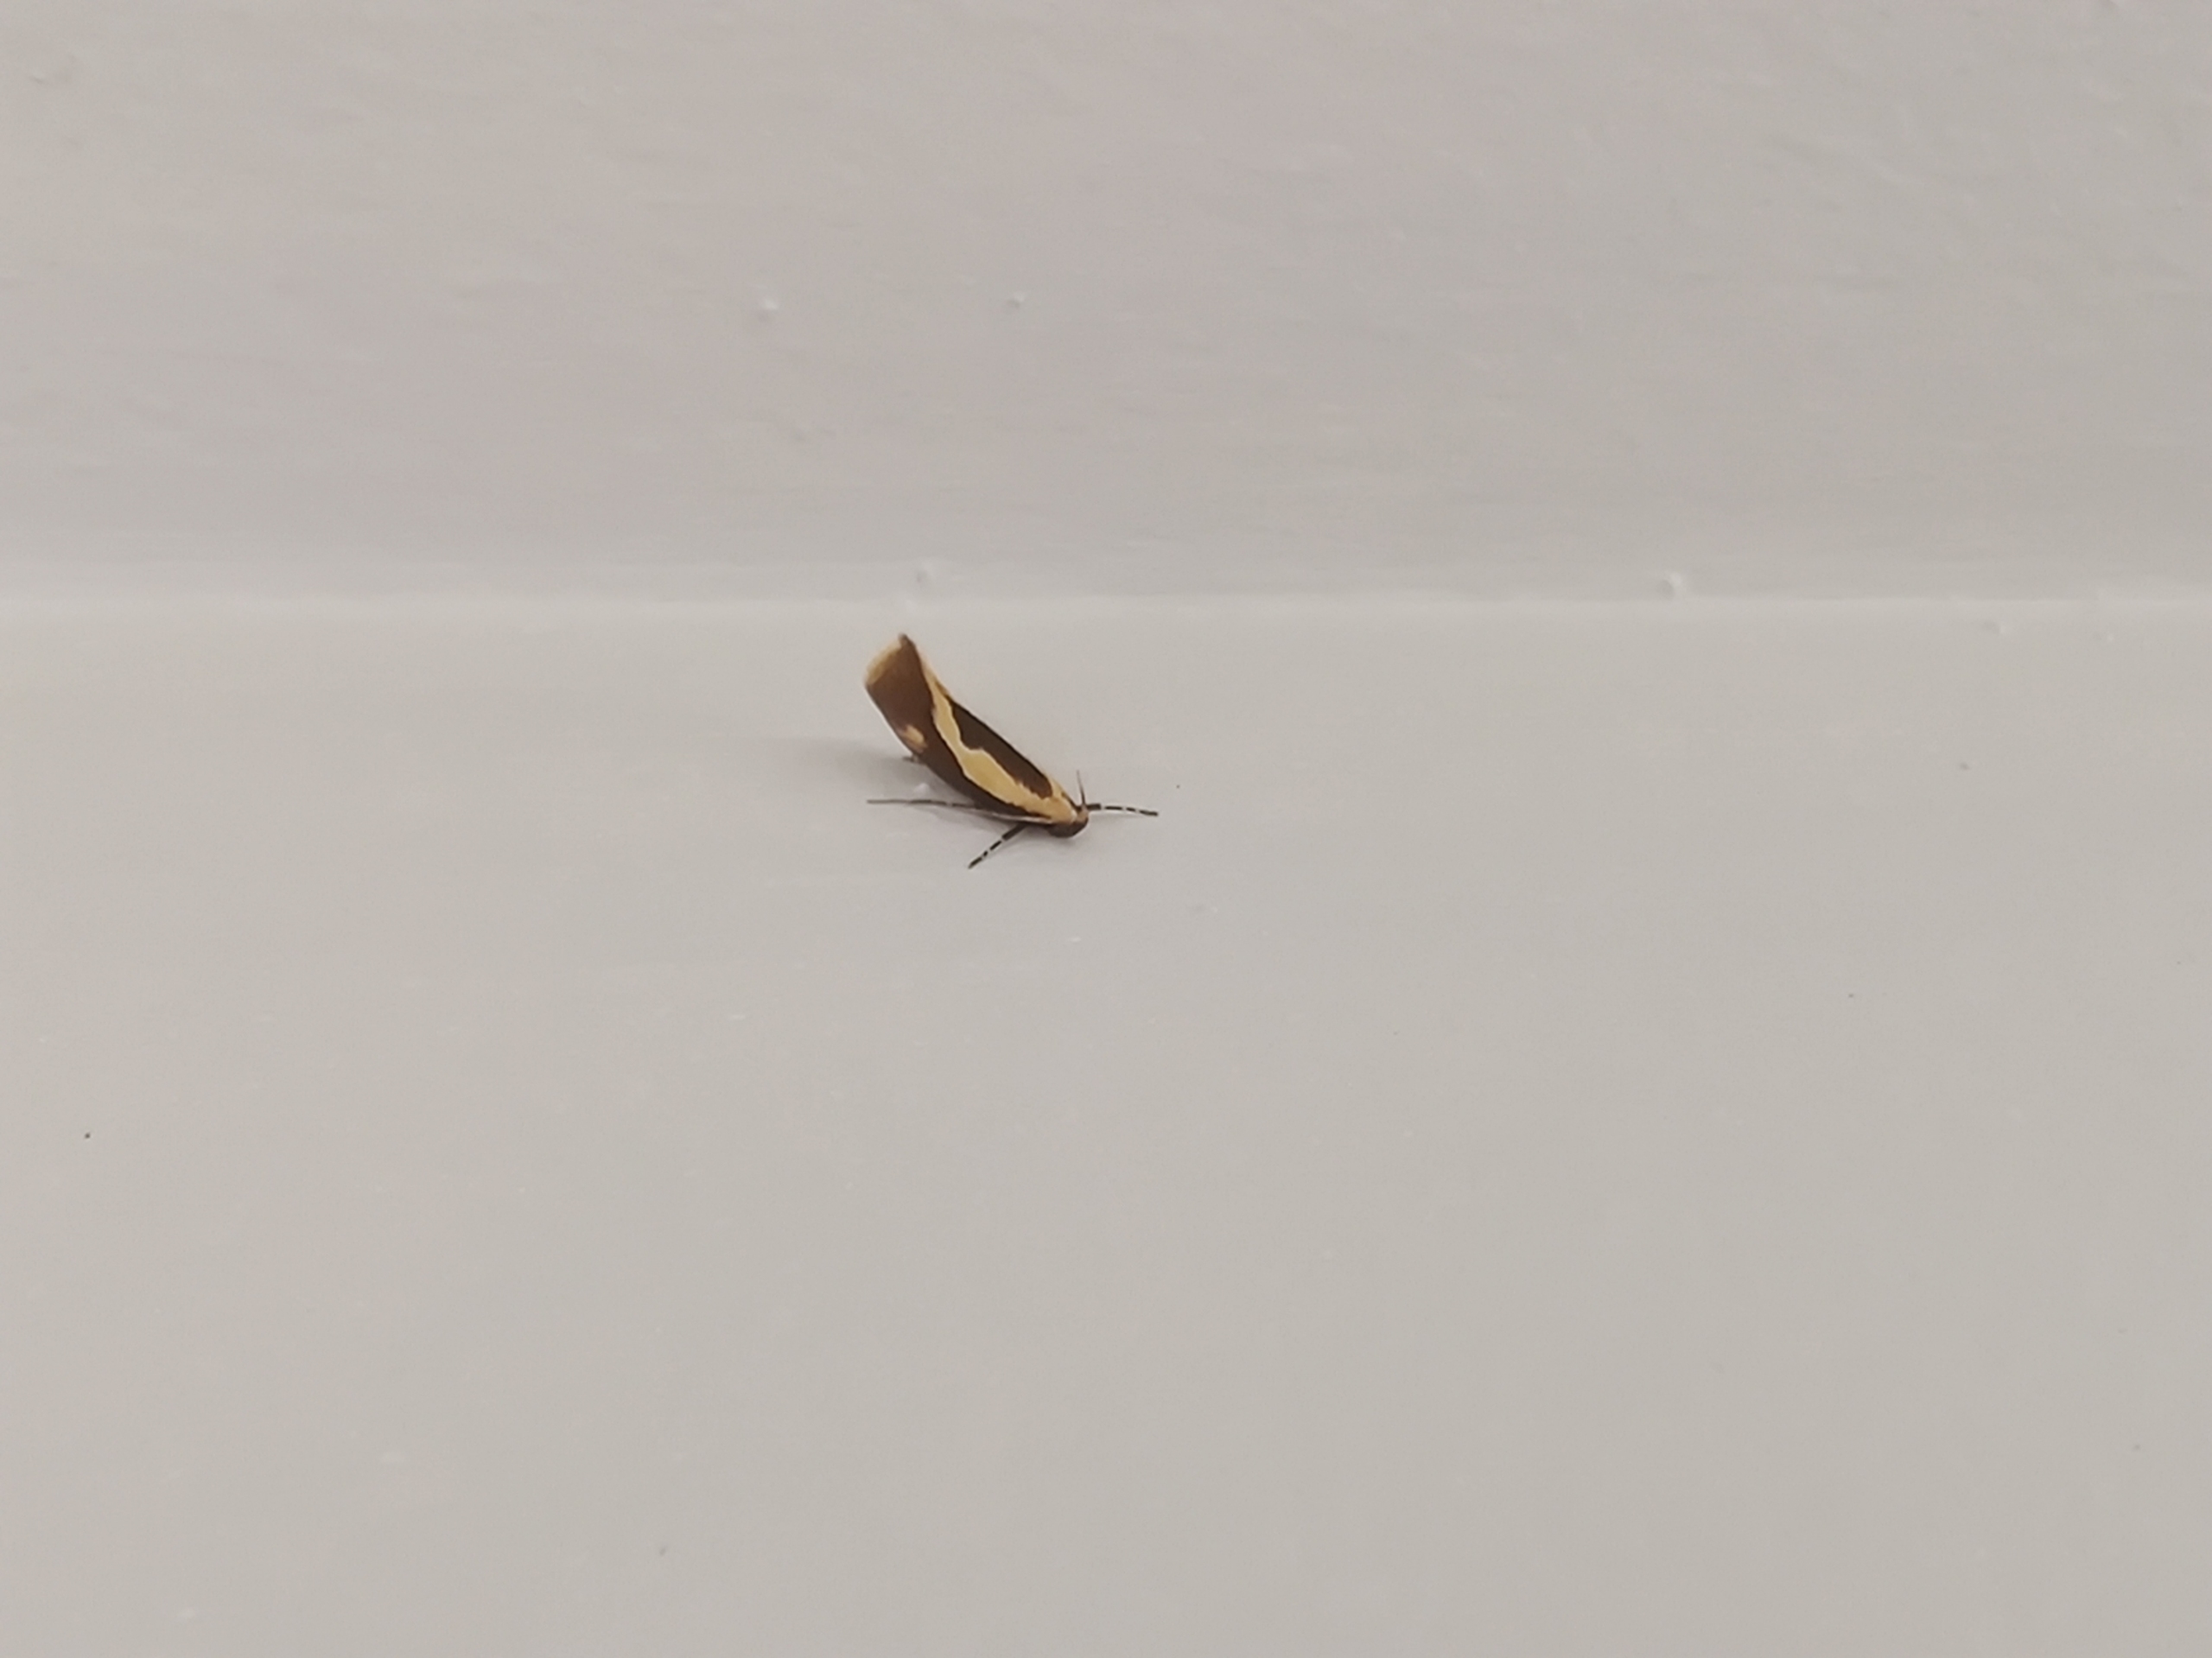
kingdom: Animalia
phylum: Arthropoda
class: Insecta
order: Lepidoptera
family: Oecophoridae
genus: Harpella
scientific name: Harpella forficella
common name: Kæmpeprydvinge
